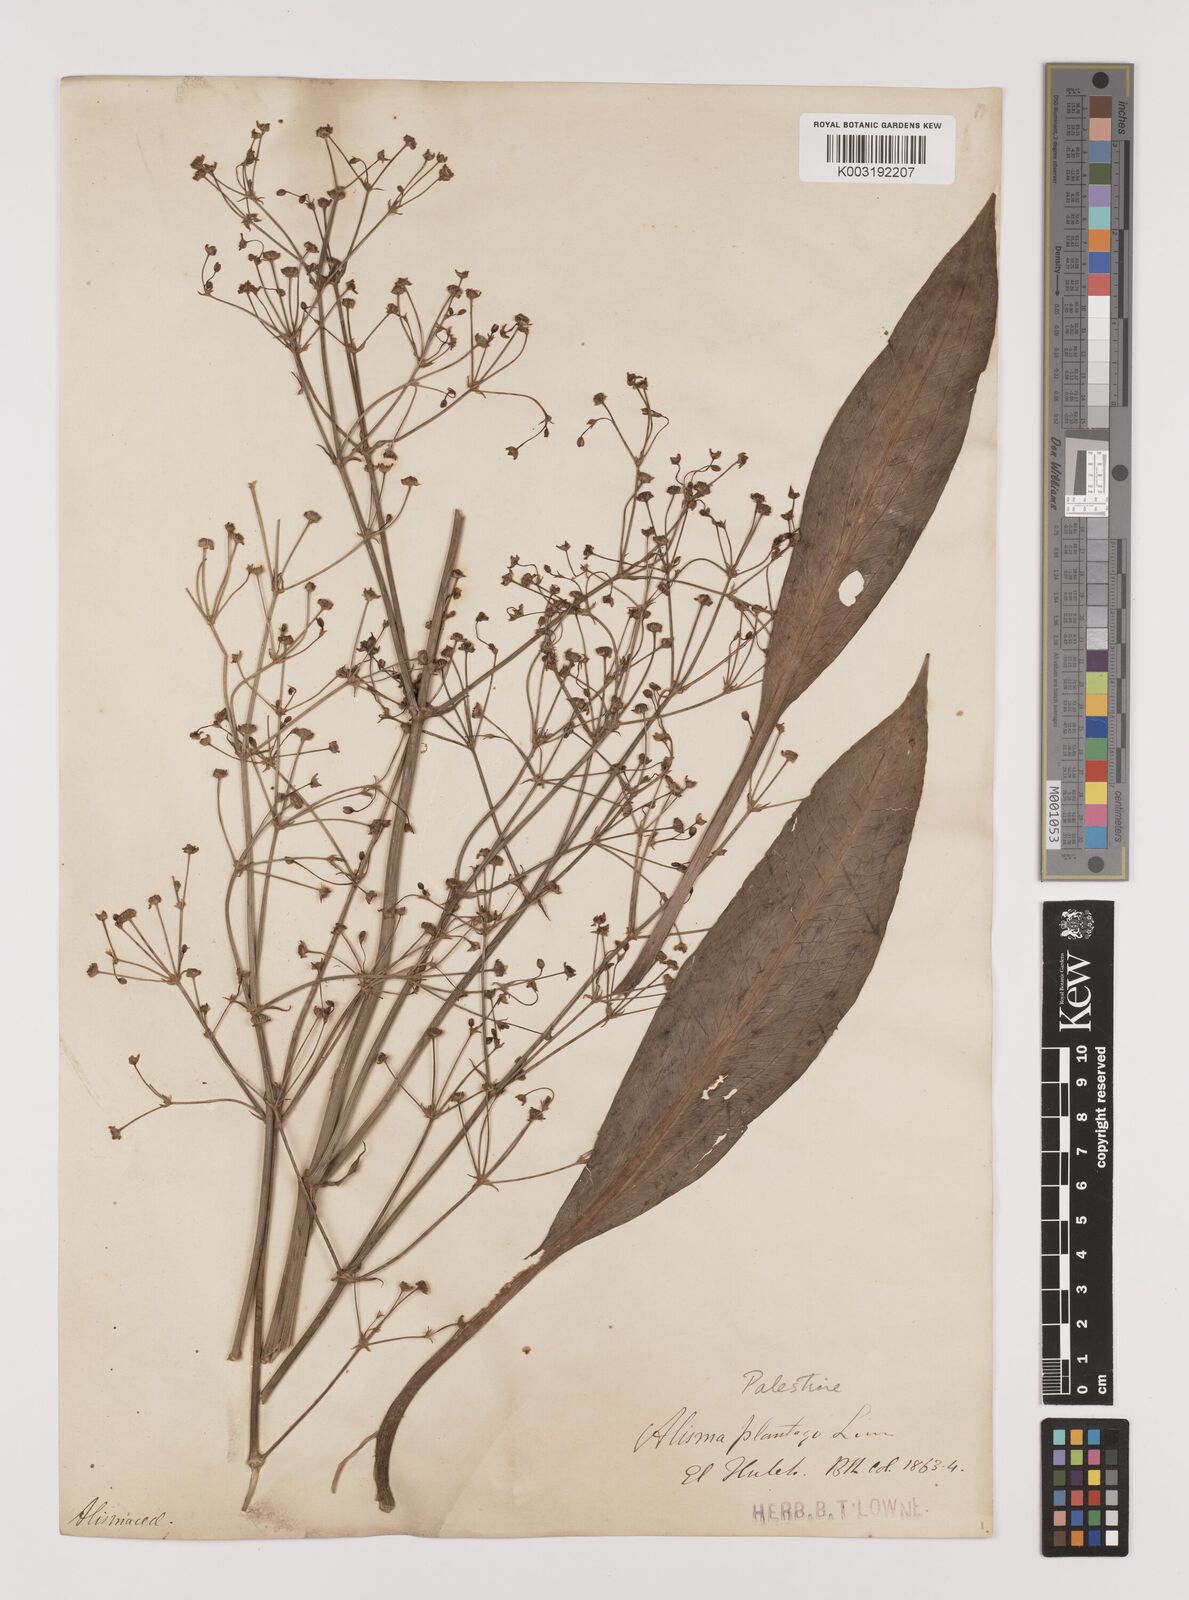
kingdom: Plantae
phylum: Tracheophyta
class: Liliopsida
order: Alismatales
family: Alismataceae
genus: Alisma
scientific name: Alisma lanceolatum
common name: Narrow-leaved water-plantain
